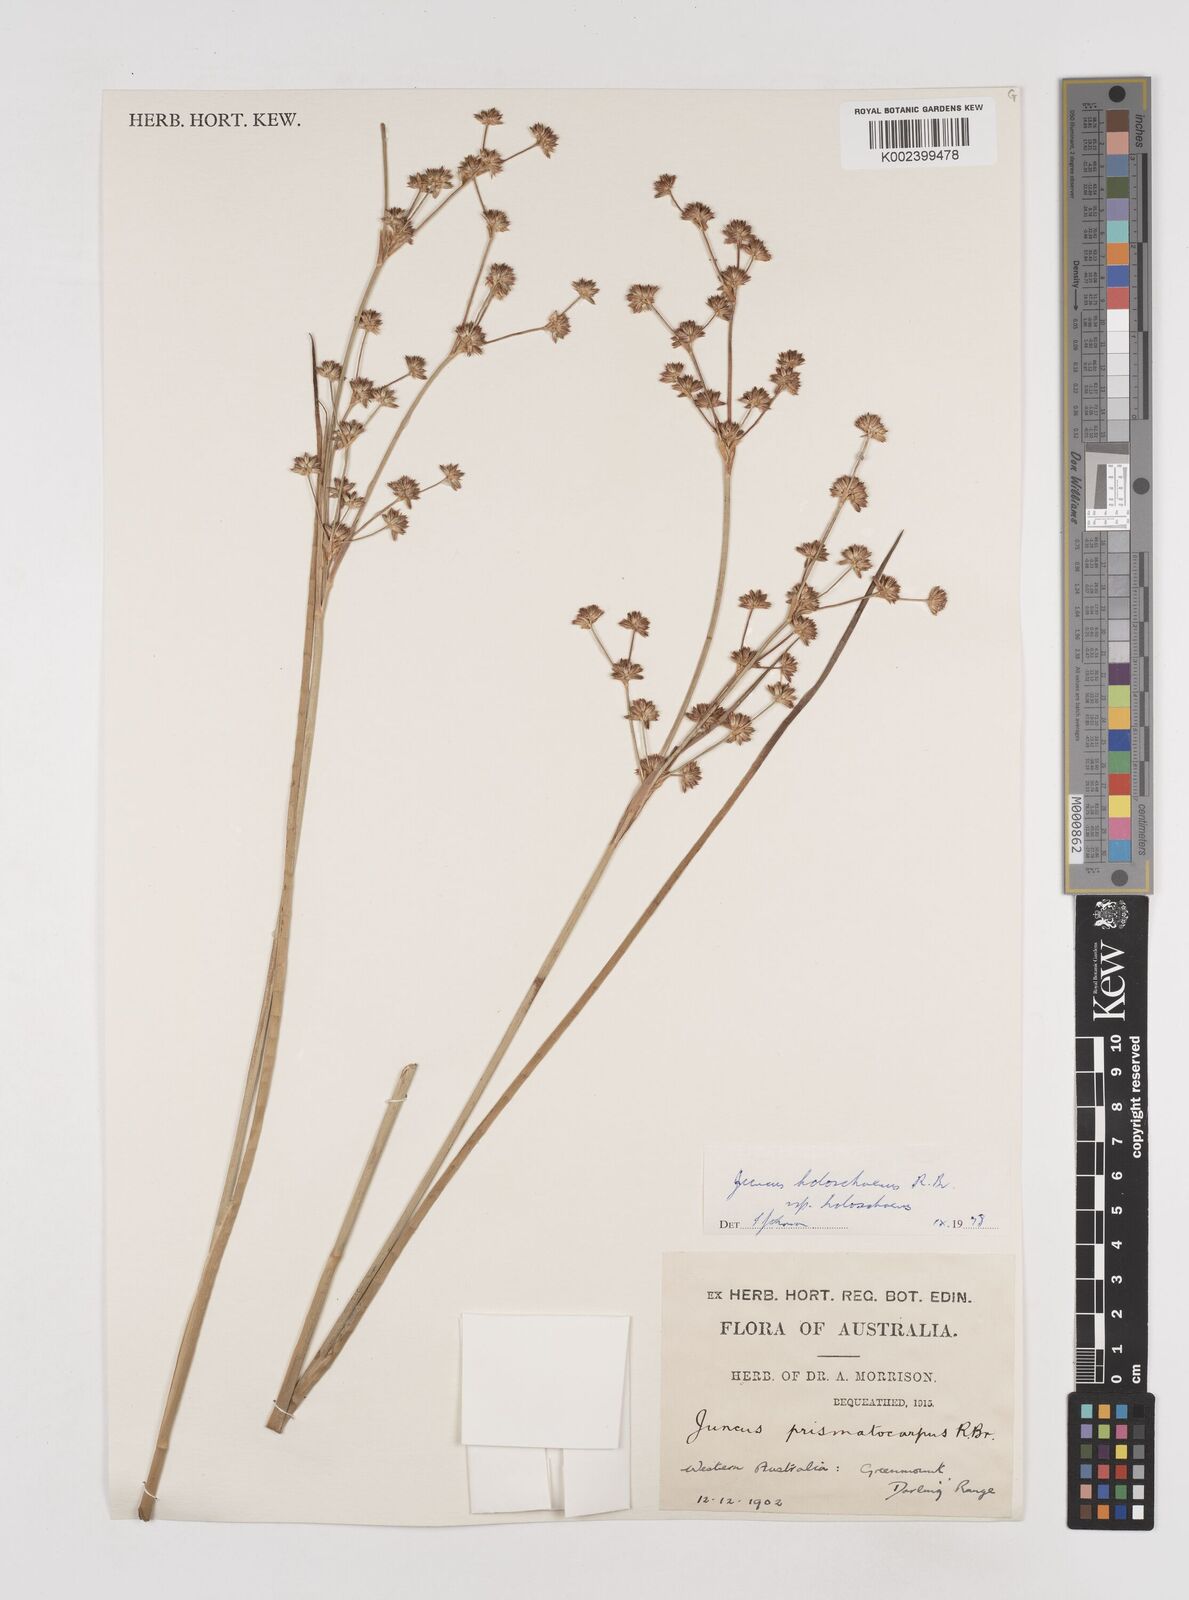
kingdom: Plantae
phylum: Tracheophyta
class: Liliopsida
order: Poales
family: Juncaceae
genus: Juncus
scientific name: Juncus holoschoenus
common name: Joint-leaf rush
